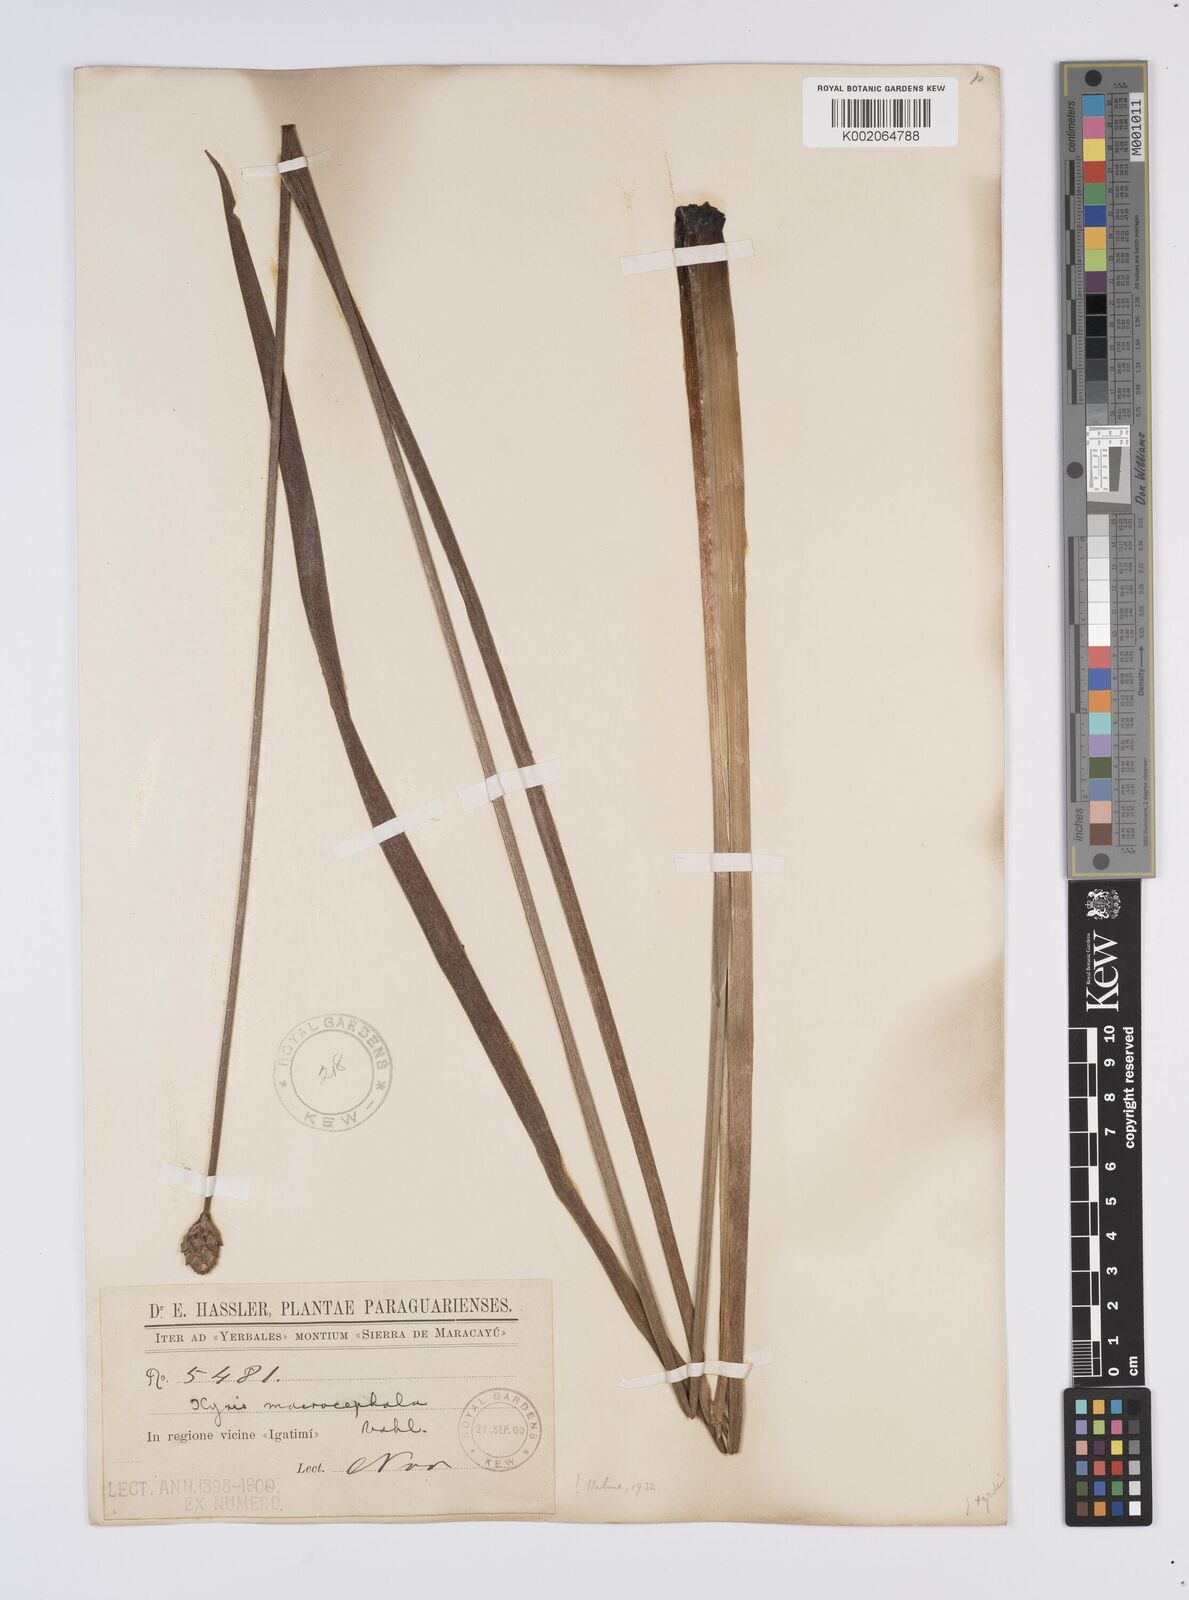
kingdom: Plantae
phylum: Tracheophyta
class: Liliopsida
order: Poales
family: Xyridaceae
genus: Xyris
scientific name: Xyris laxifolia
